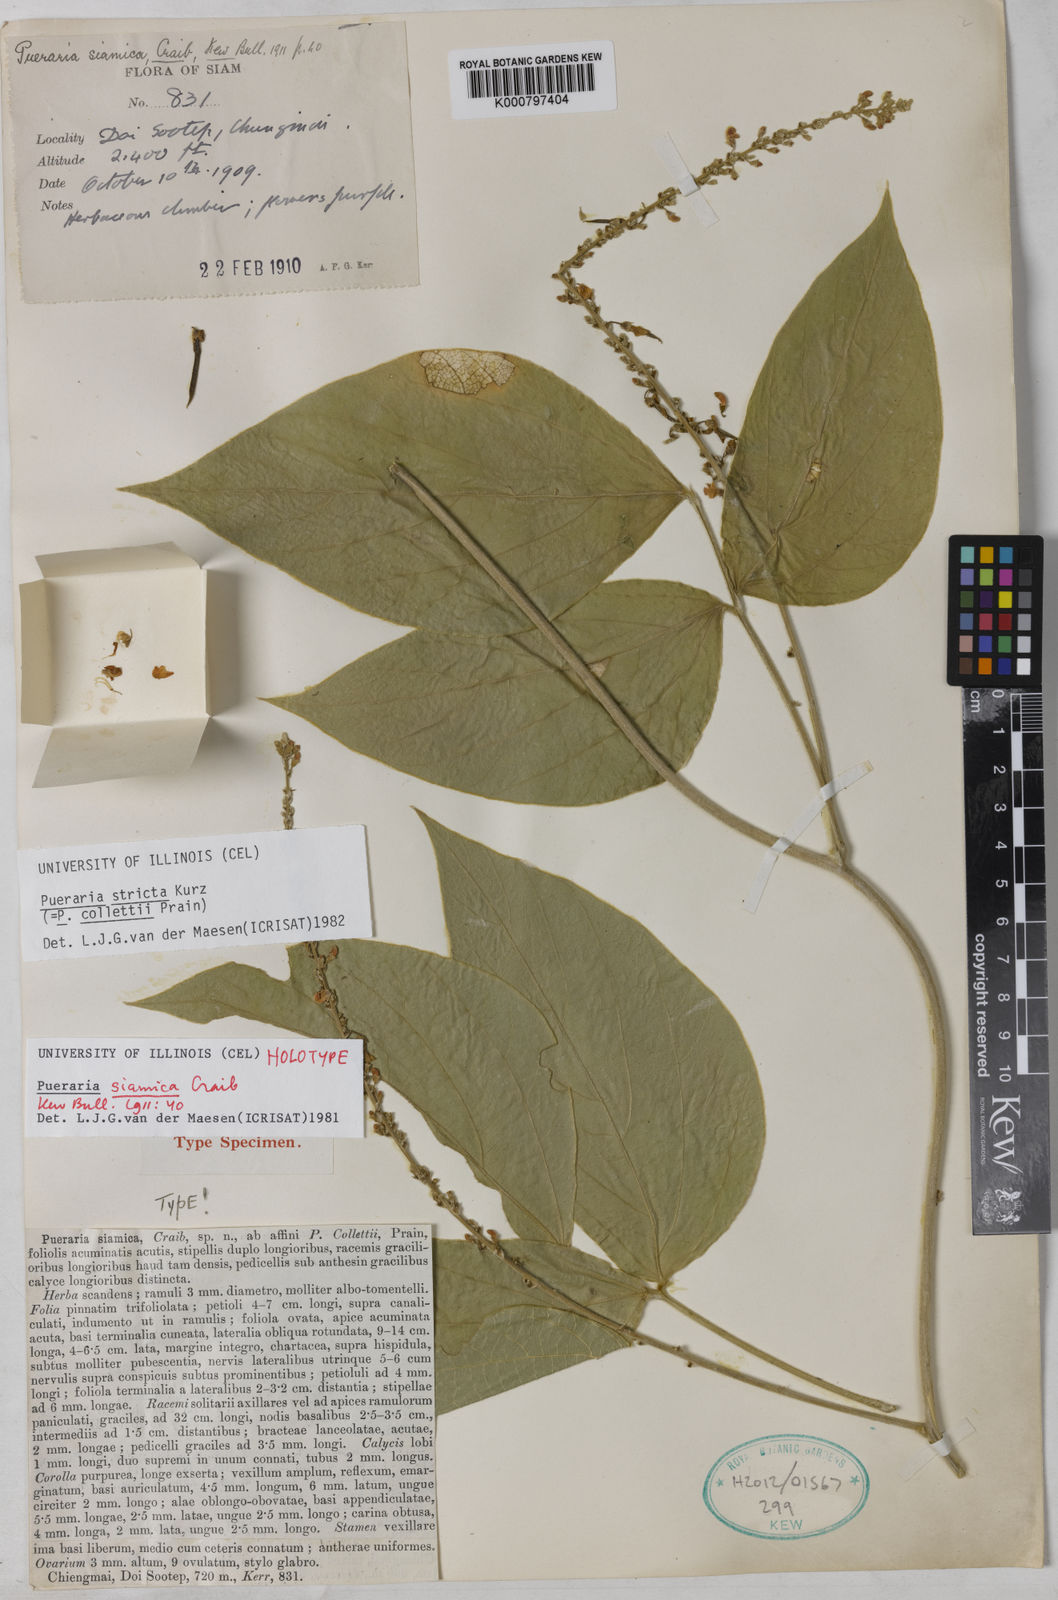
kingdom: Plantae
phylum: Tracheophyta
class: Magnoliopsida
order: Fabales
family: Fabaceae
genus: Teyleria
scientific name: Teyleria stricta
